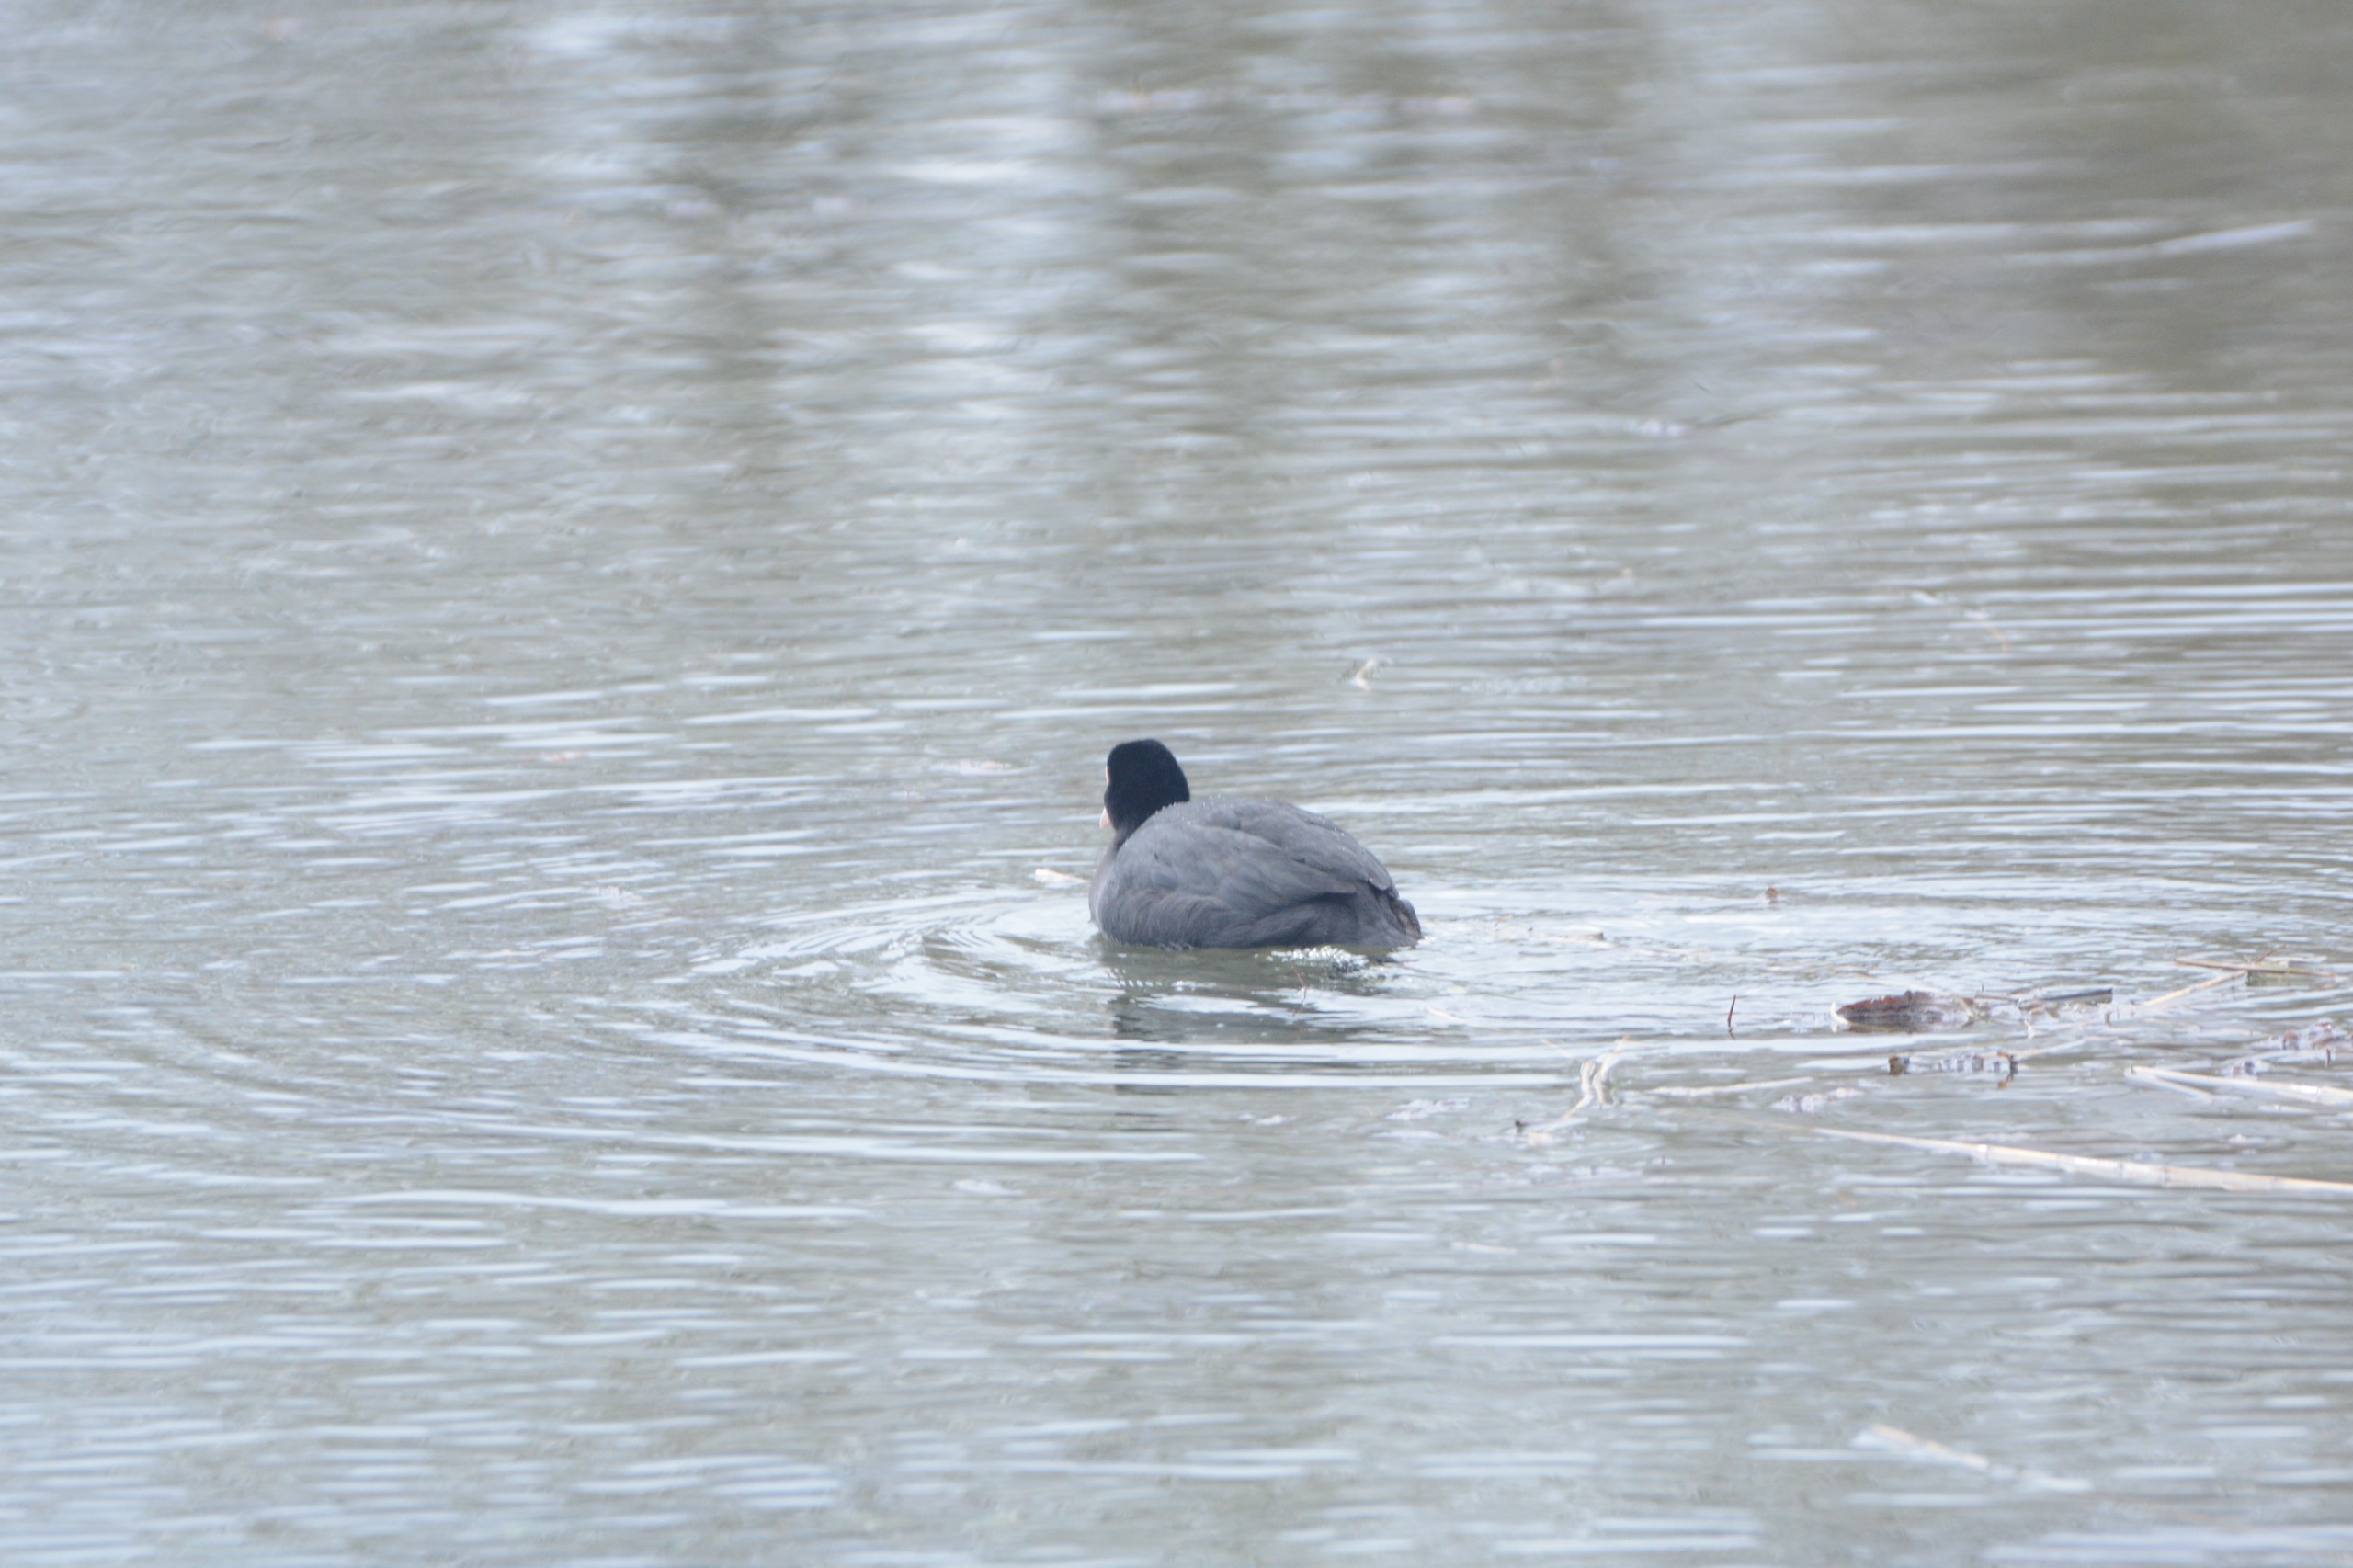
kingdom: Animalia
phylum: Chordata
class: Aves
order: Gruiformes
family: Rallidae
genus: Fulica
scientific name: Fulica atra
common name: Blishøne
